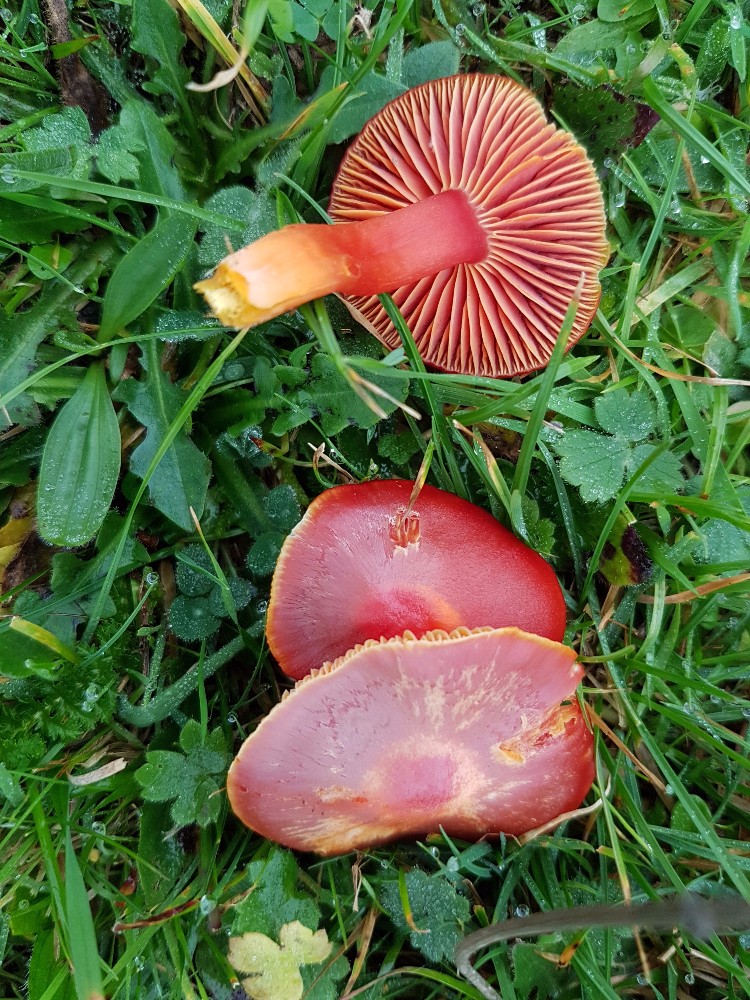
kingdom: Fungi
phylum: Basidiomycota
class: Agaricomycetes
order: Agaricales
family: Hygrophoraceae
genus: Hygrocybe
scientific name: Hygrocybe coccinea
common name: cinnober-vokshat
